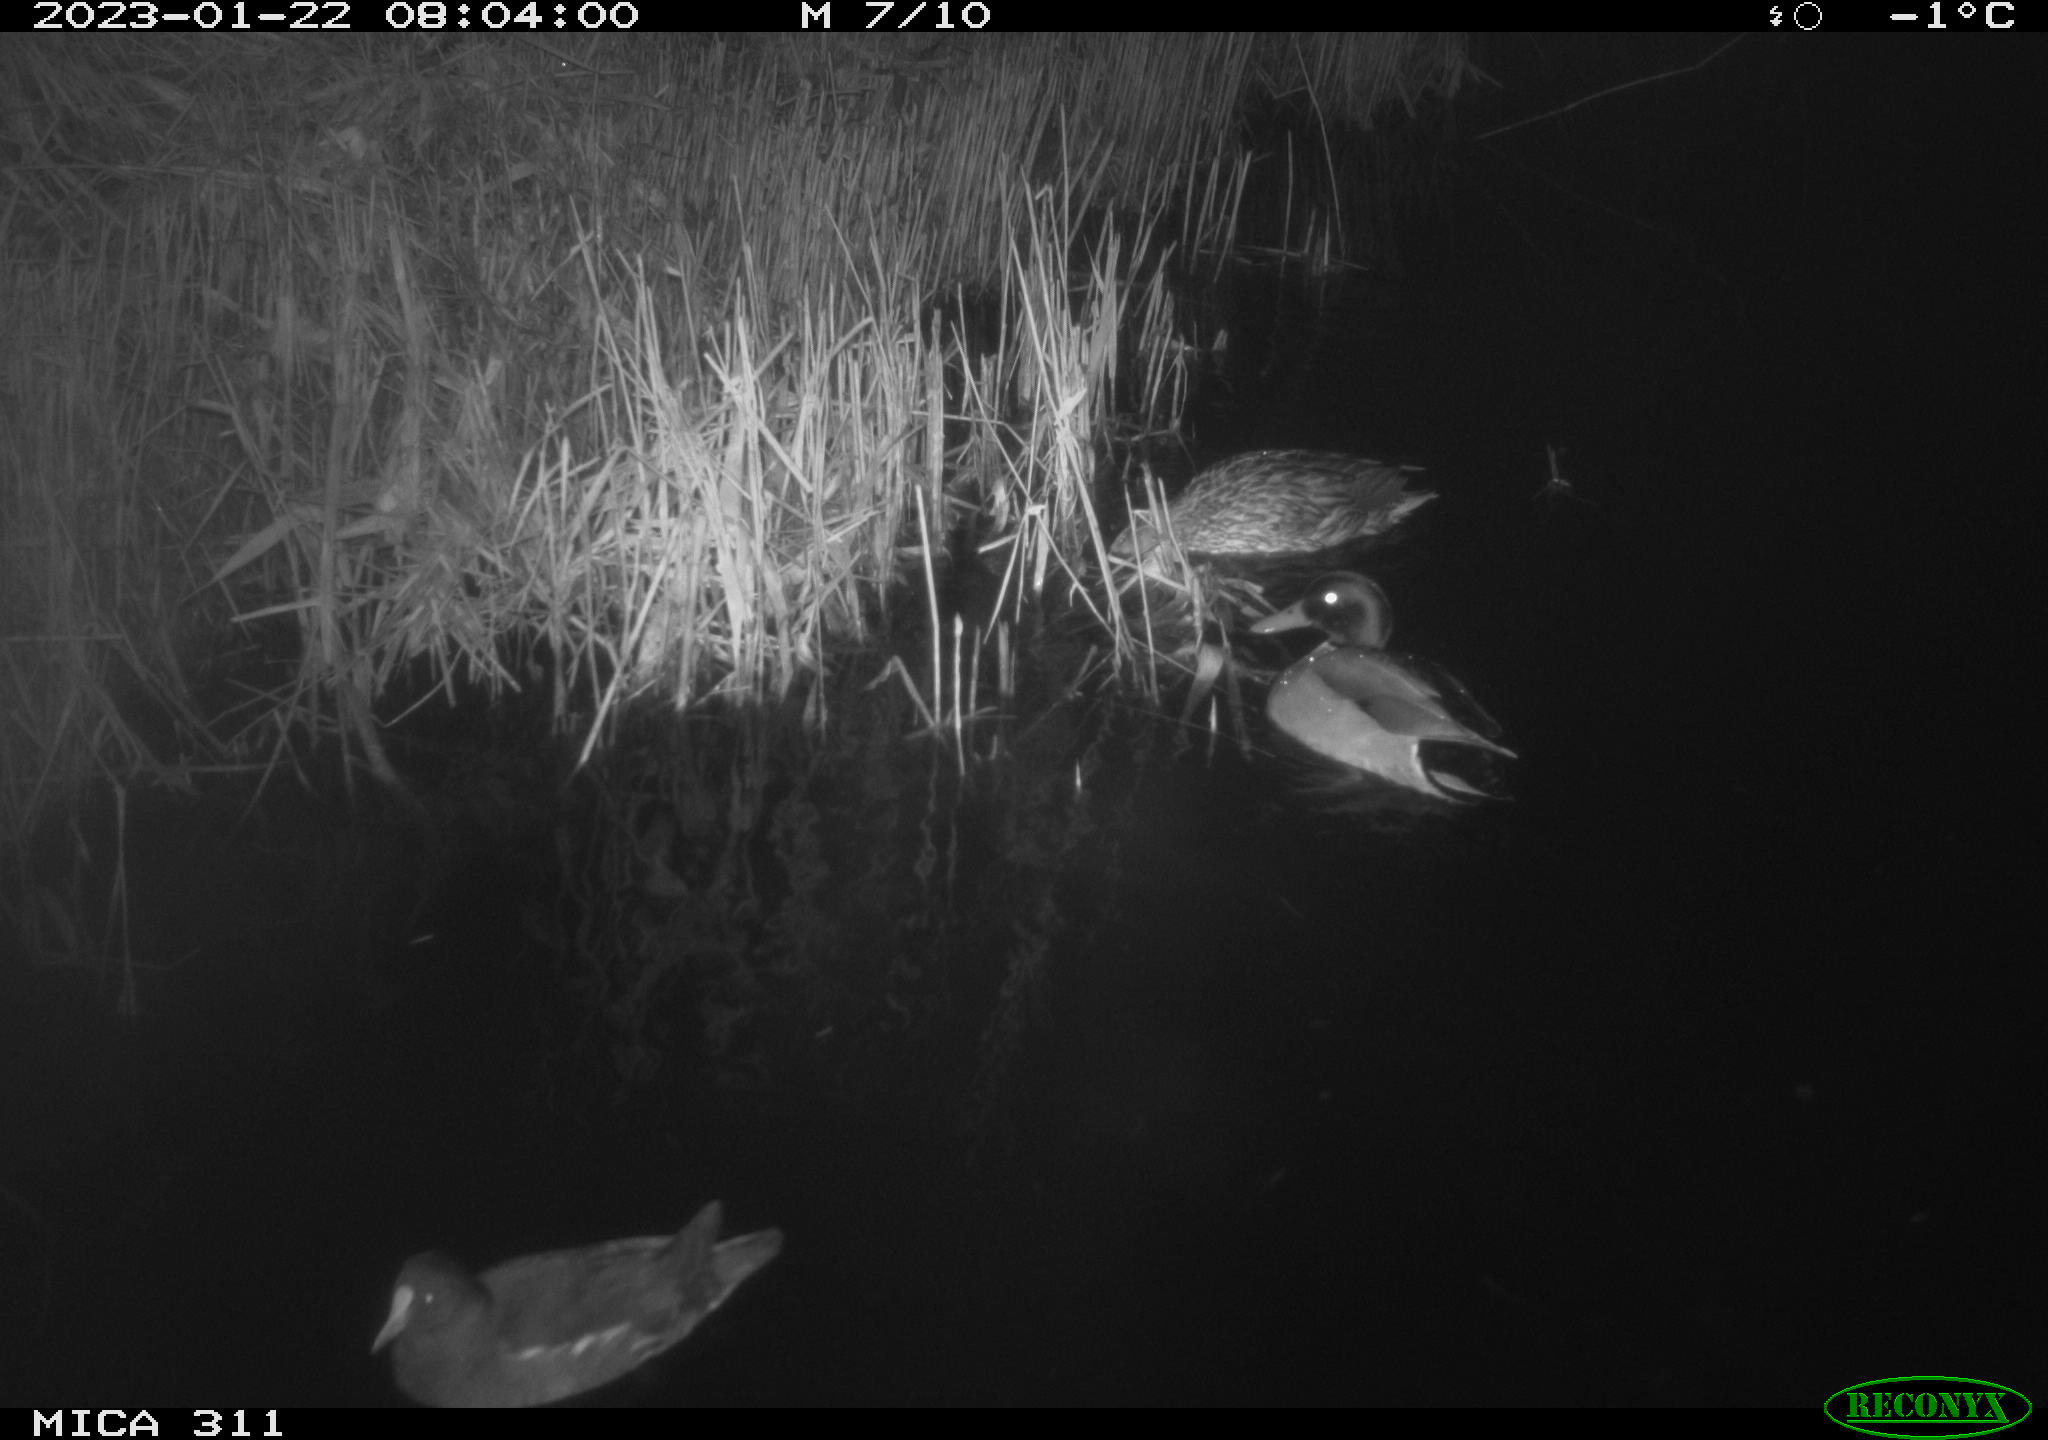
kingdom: Animalia
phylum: Chordata
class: Aves
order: Anseriformes
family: Anatidae
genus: Anas
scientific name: Anas
